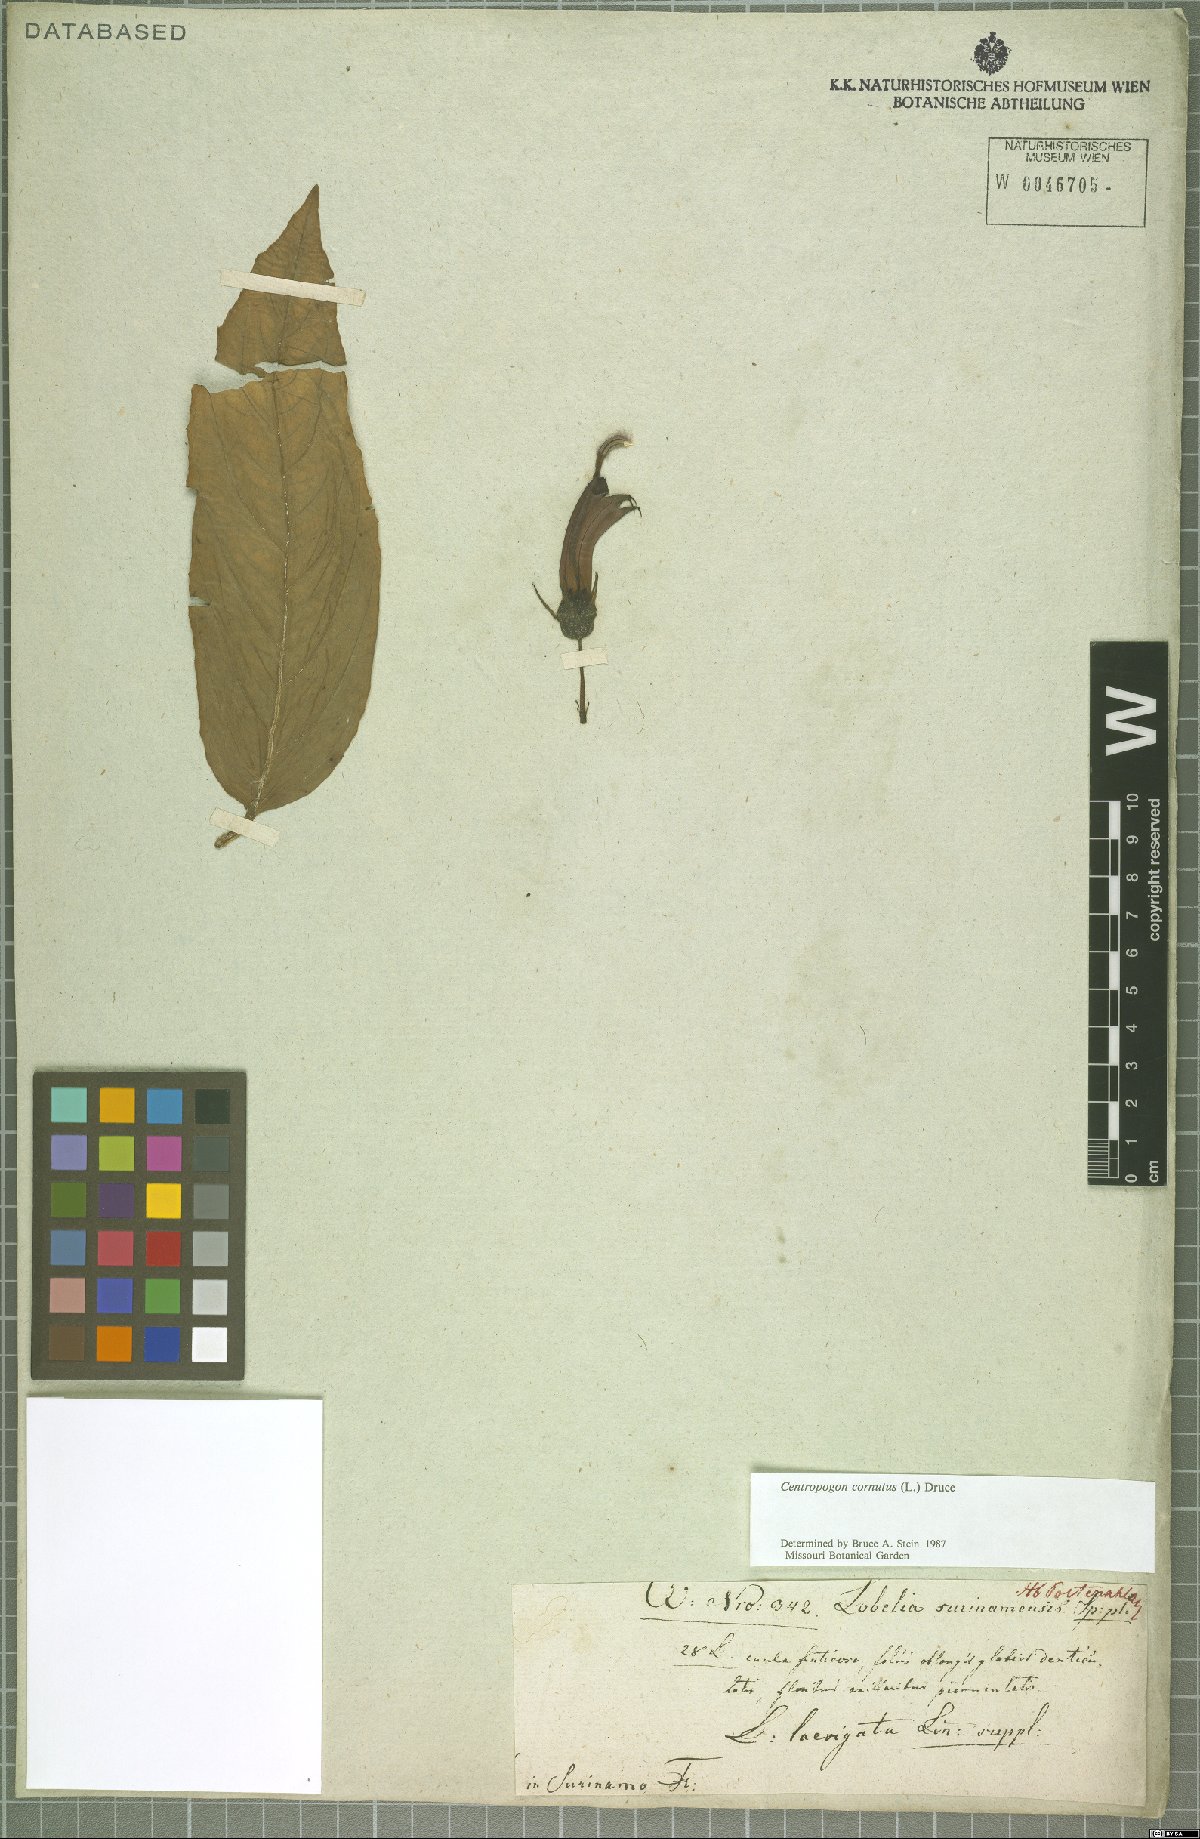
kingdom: Plantae
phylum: Tracheophyta
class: Magnoliopsida
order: Asterales
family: Campanulaceae
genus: Centropogon
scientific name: Centropogon cornutus
